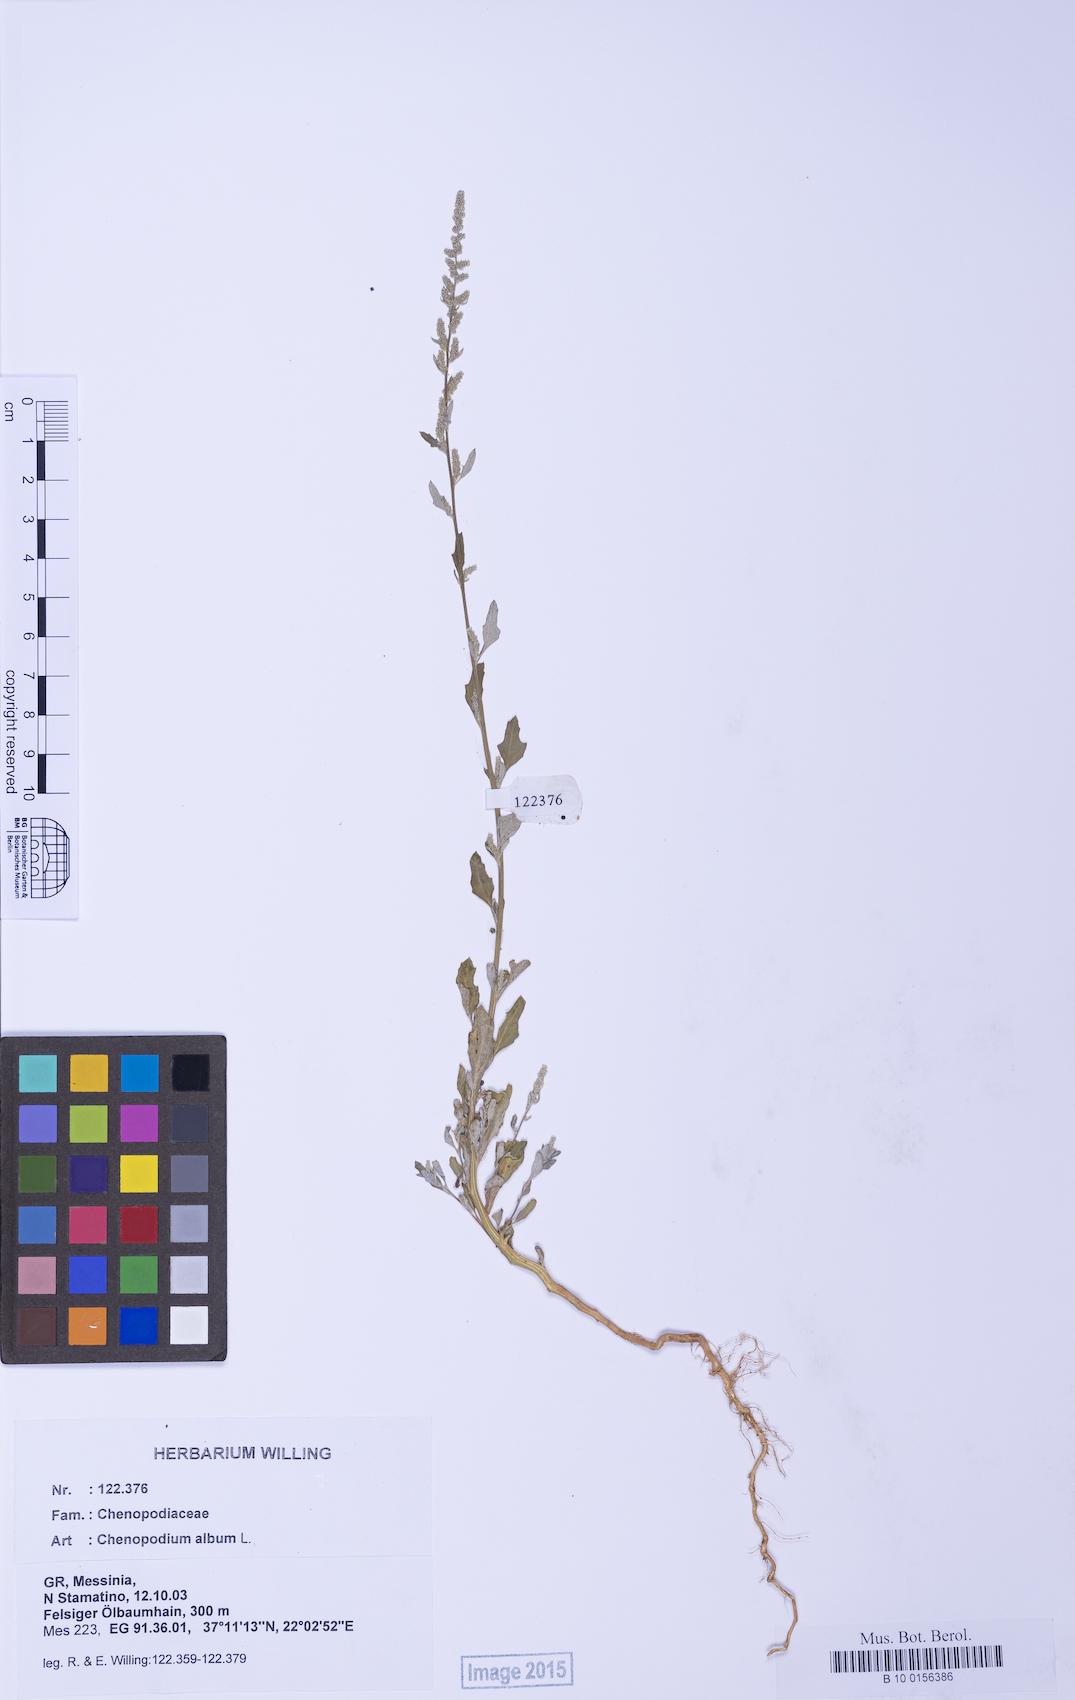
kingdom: Plantae
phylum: Tracheophyta
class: Magnoliopsida
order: Caryophyllales
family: Amaranthaceae
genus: Chenopodium
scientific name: Chenopodium album
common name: Fat-hen
